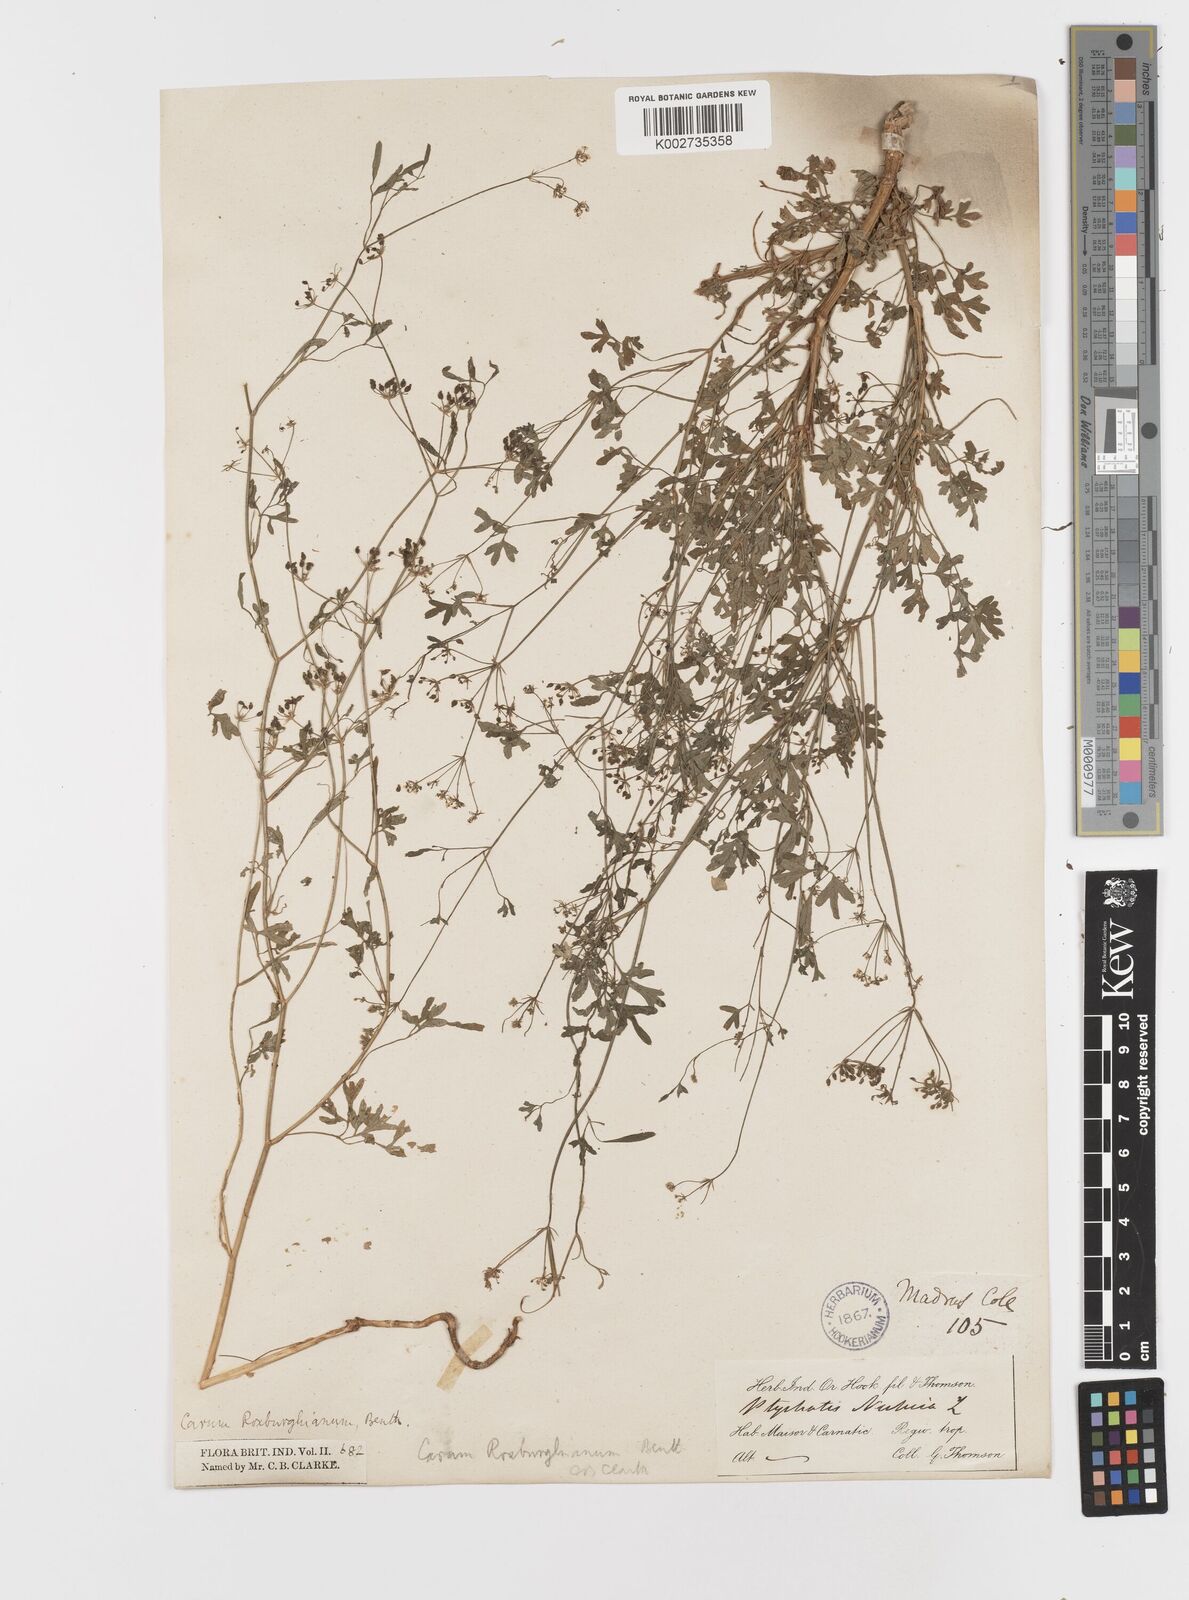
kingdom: Plantae
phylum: Tracheophyta
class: Magnoliopsida
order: Apiales
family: Apiaceae
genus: Psammogeton
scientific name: Psammogeton involucratum
